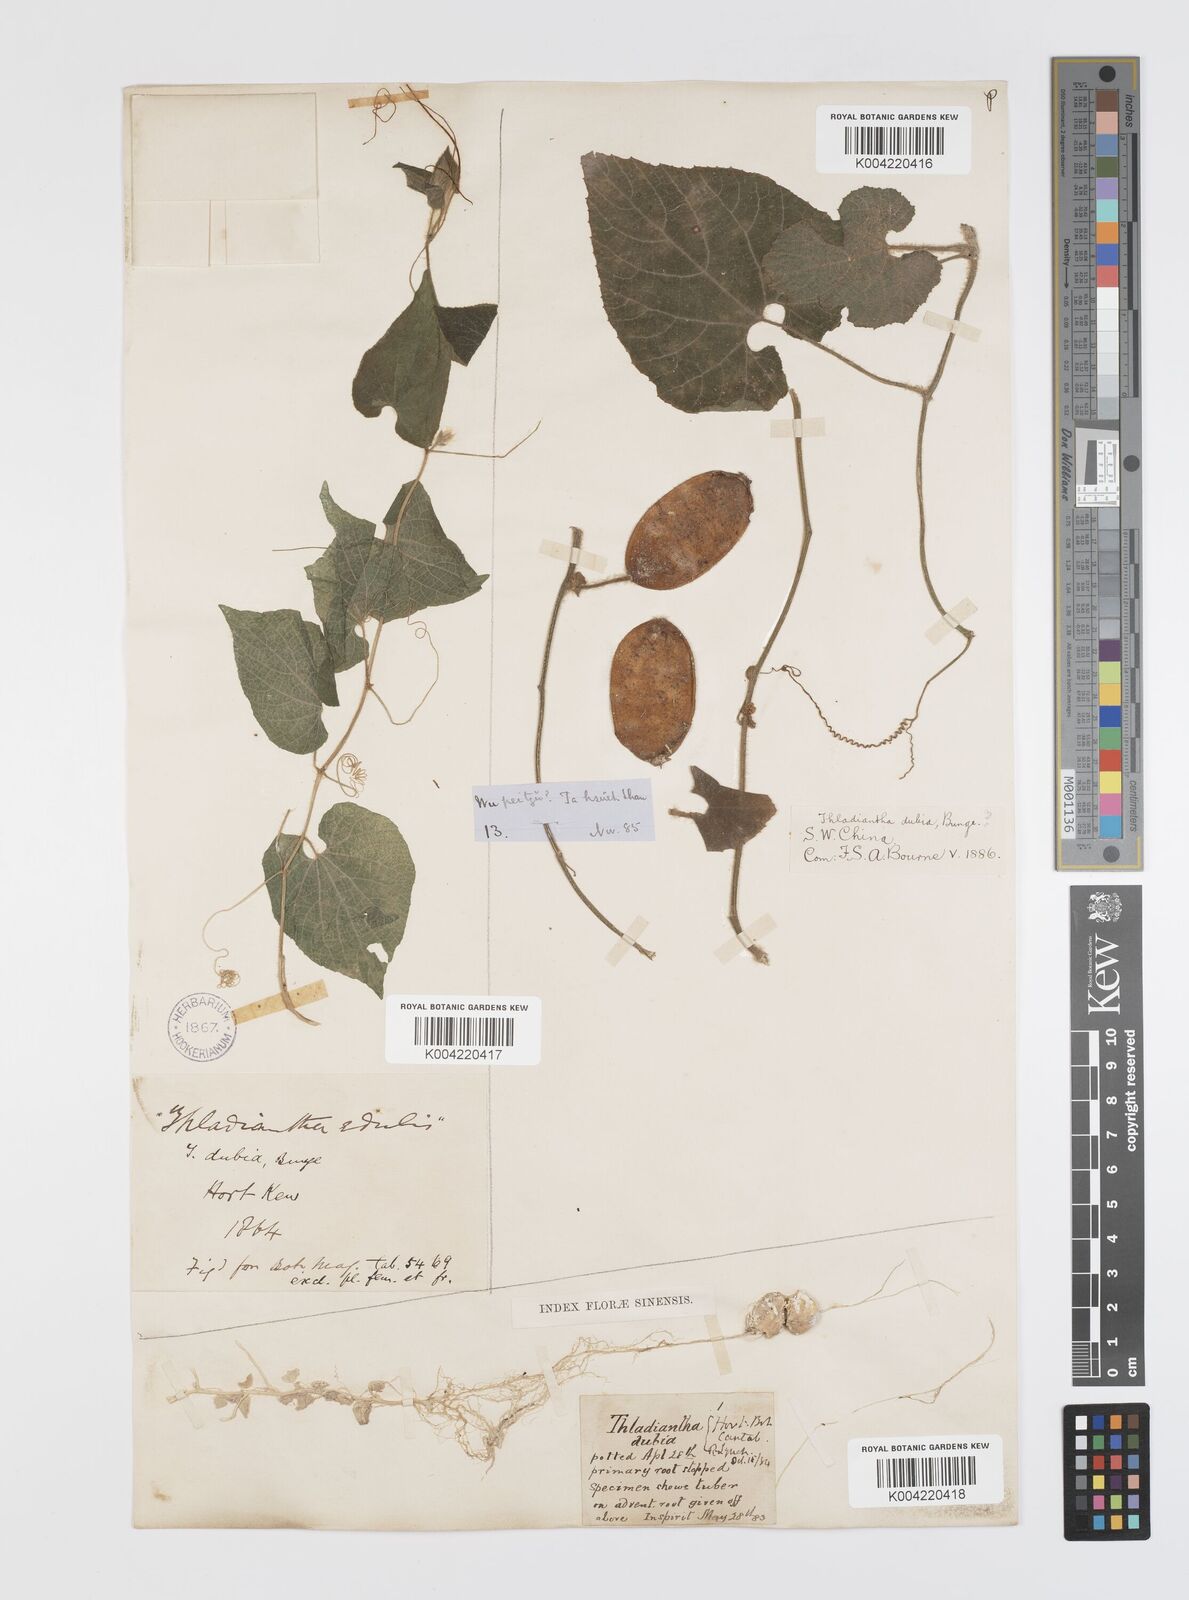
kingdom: Plantae
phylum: Tracheophyta
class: Magnoliopsida
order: Cucurbitales
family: Cucurbitaceae
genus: Thladiantha
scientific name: Thladiantha nudiflora
